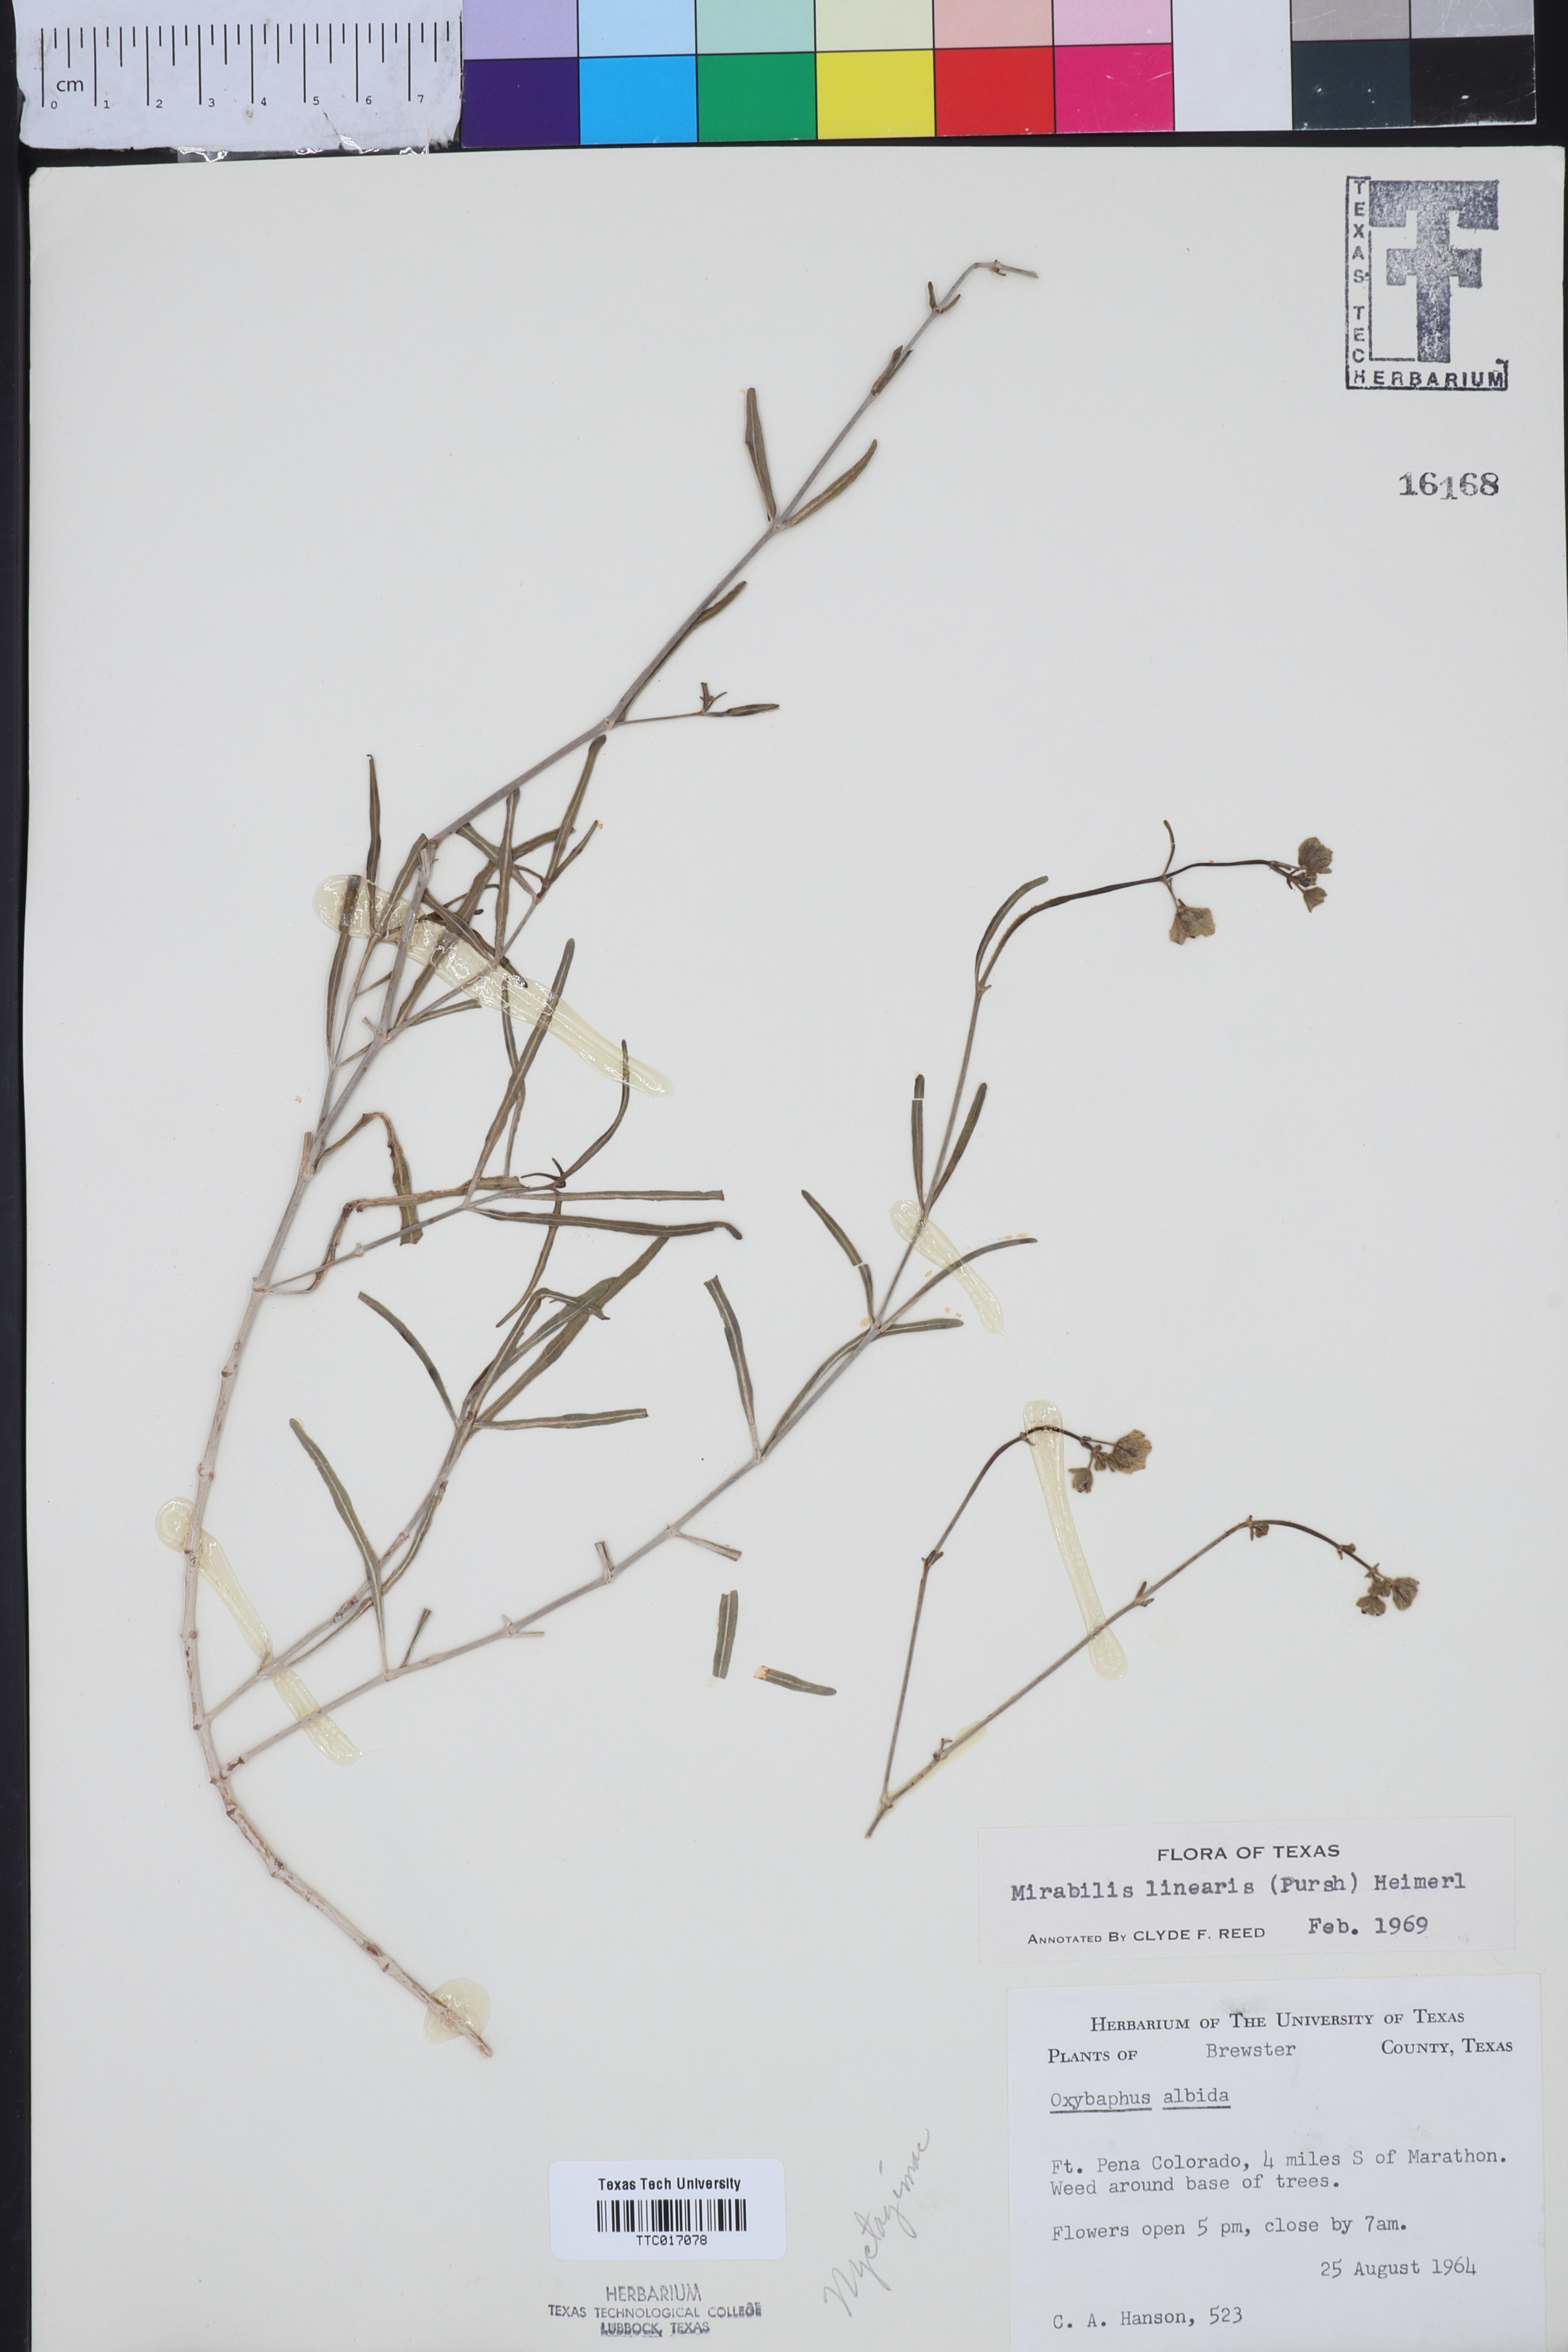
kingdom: Plantae
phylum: Tracheophyta
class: Magnoliopsida
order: Caryophyllales
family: Nyctaginaceae
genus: Mirabilis
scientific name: Mirabilis linearis
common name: Linear-leaved four-o'clock
